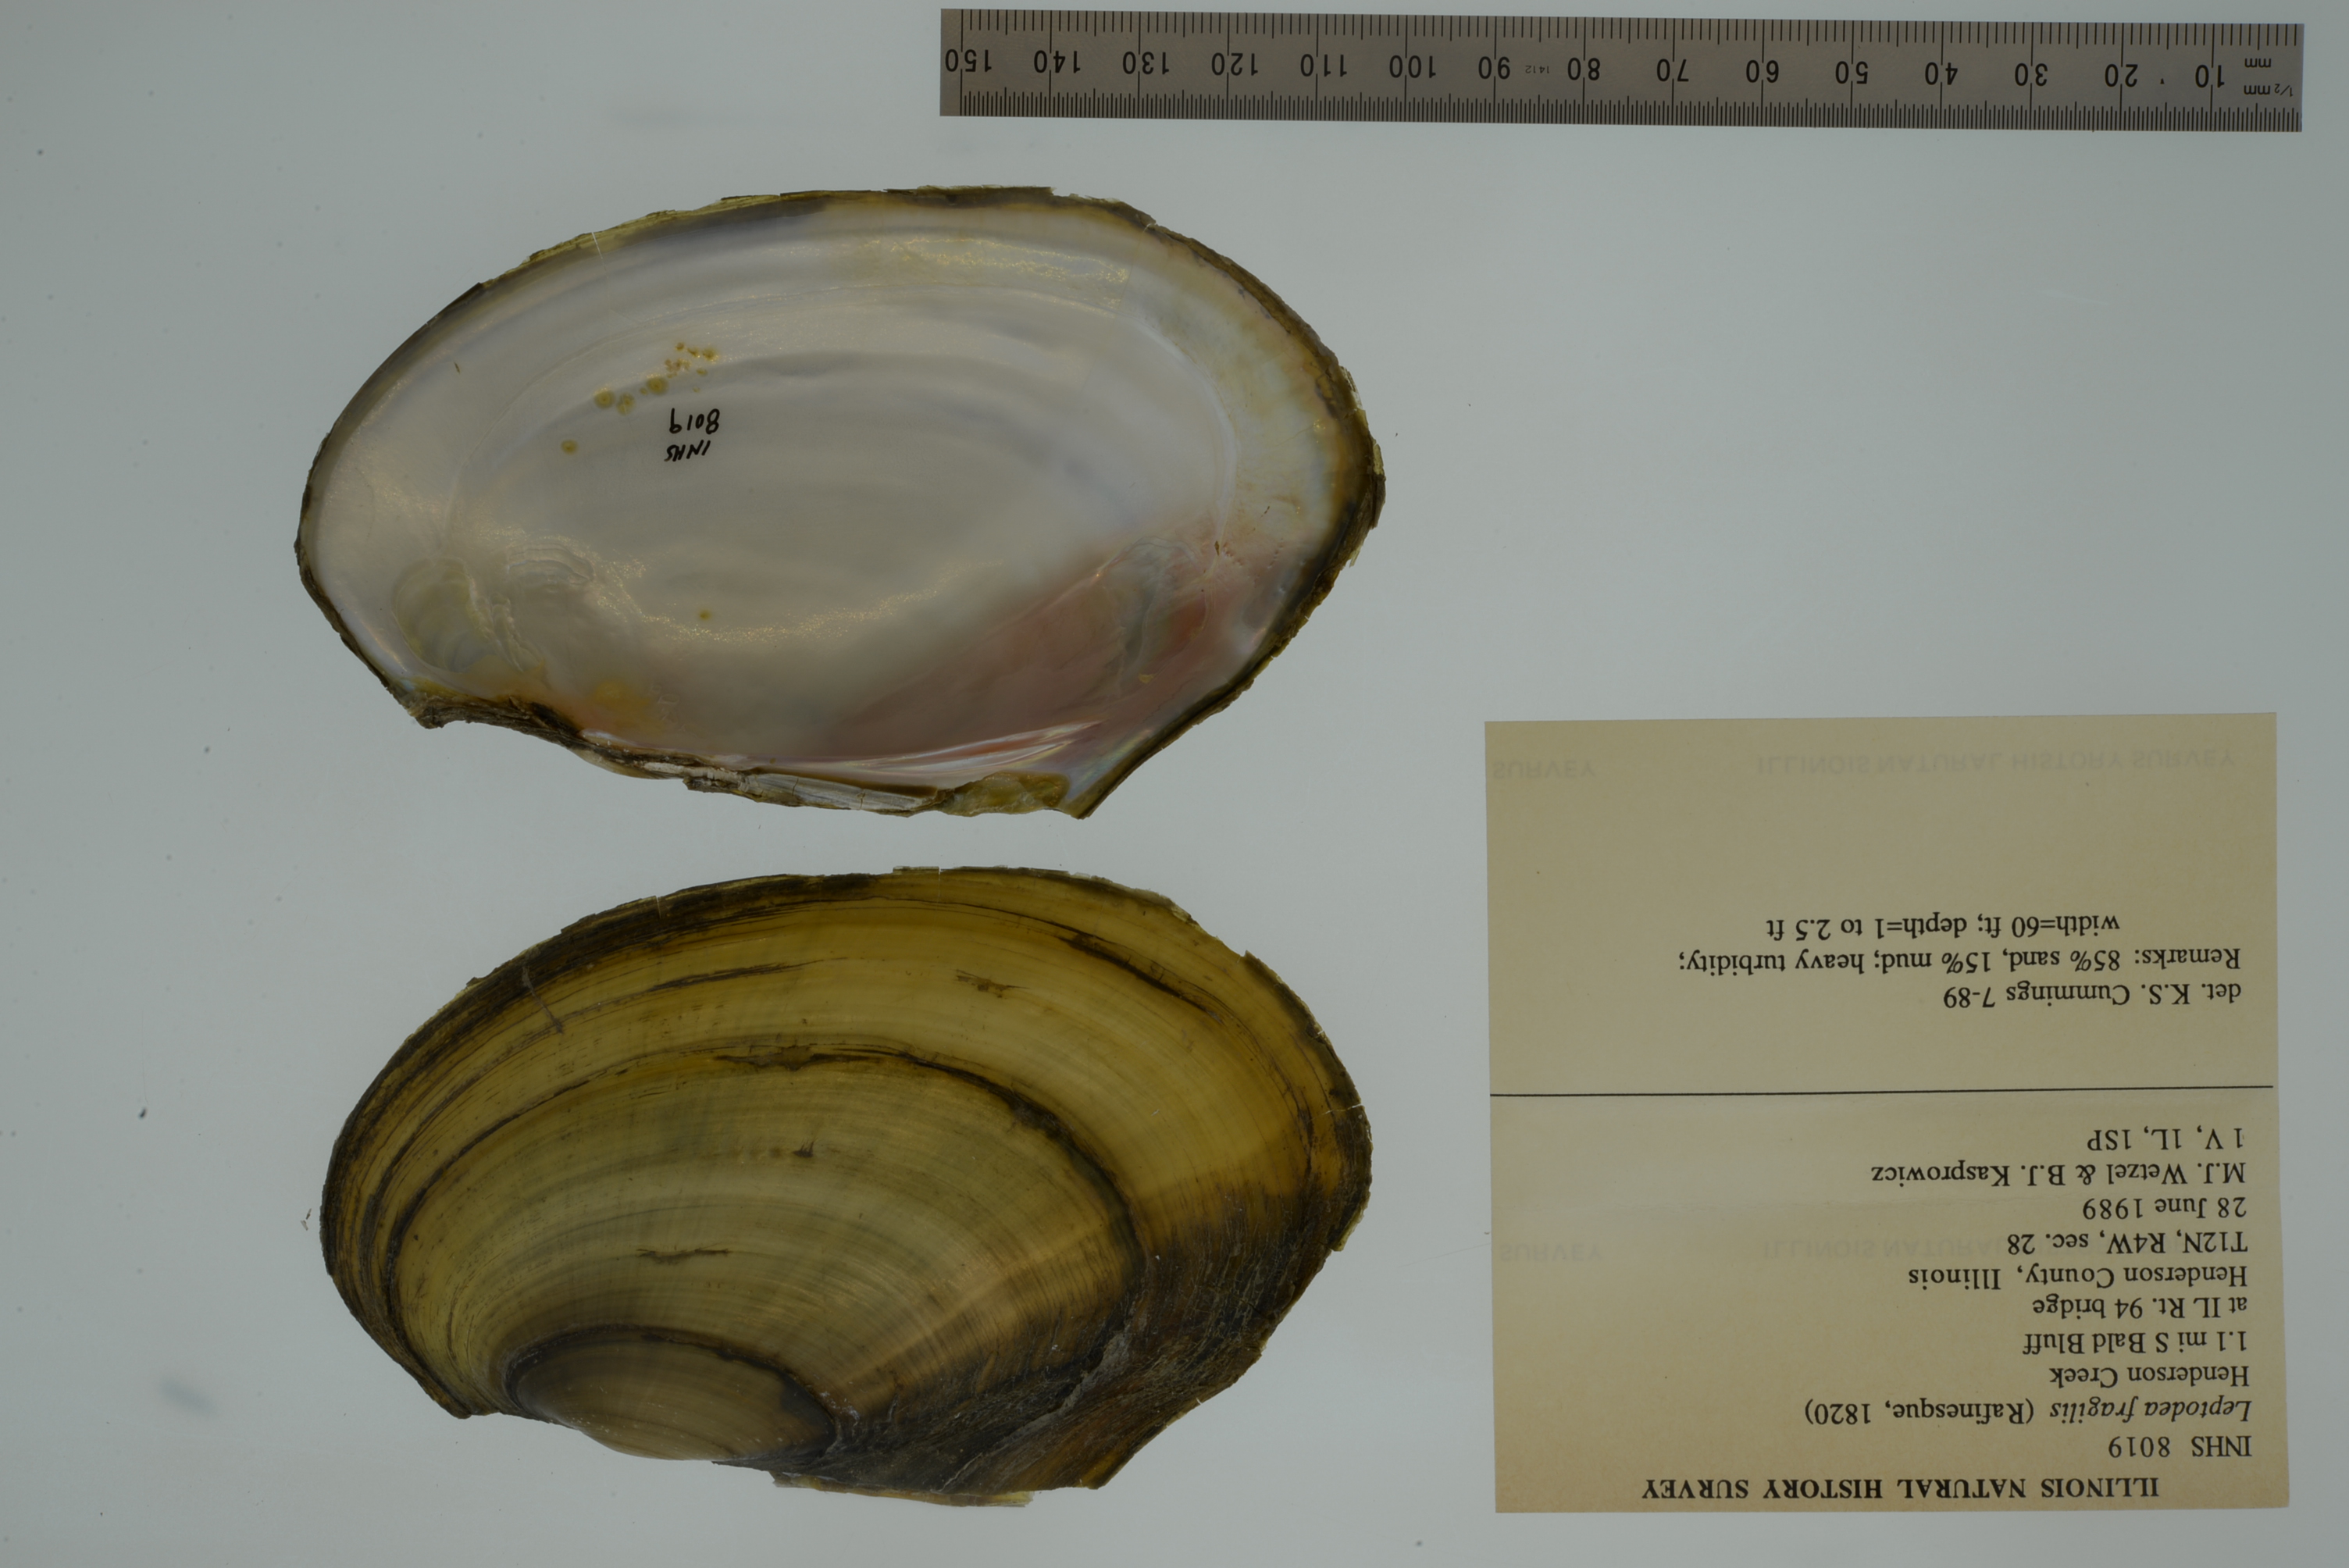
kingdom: Animalia
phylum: Mollusca
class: Bivalvia
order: Unionida
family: Unionidae
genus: Potamilus
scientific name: Potamilus fragilis
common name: Fragile papershell
